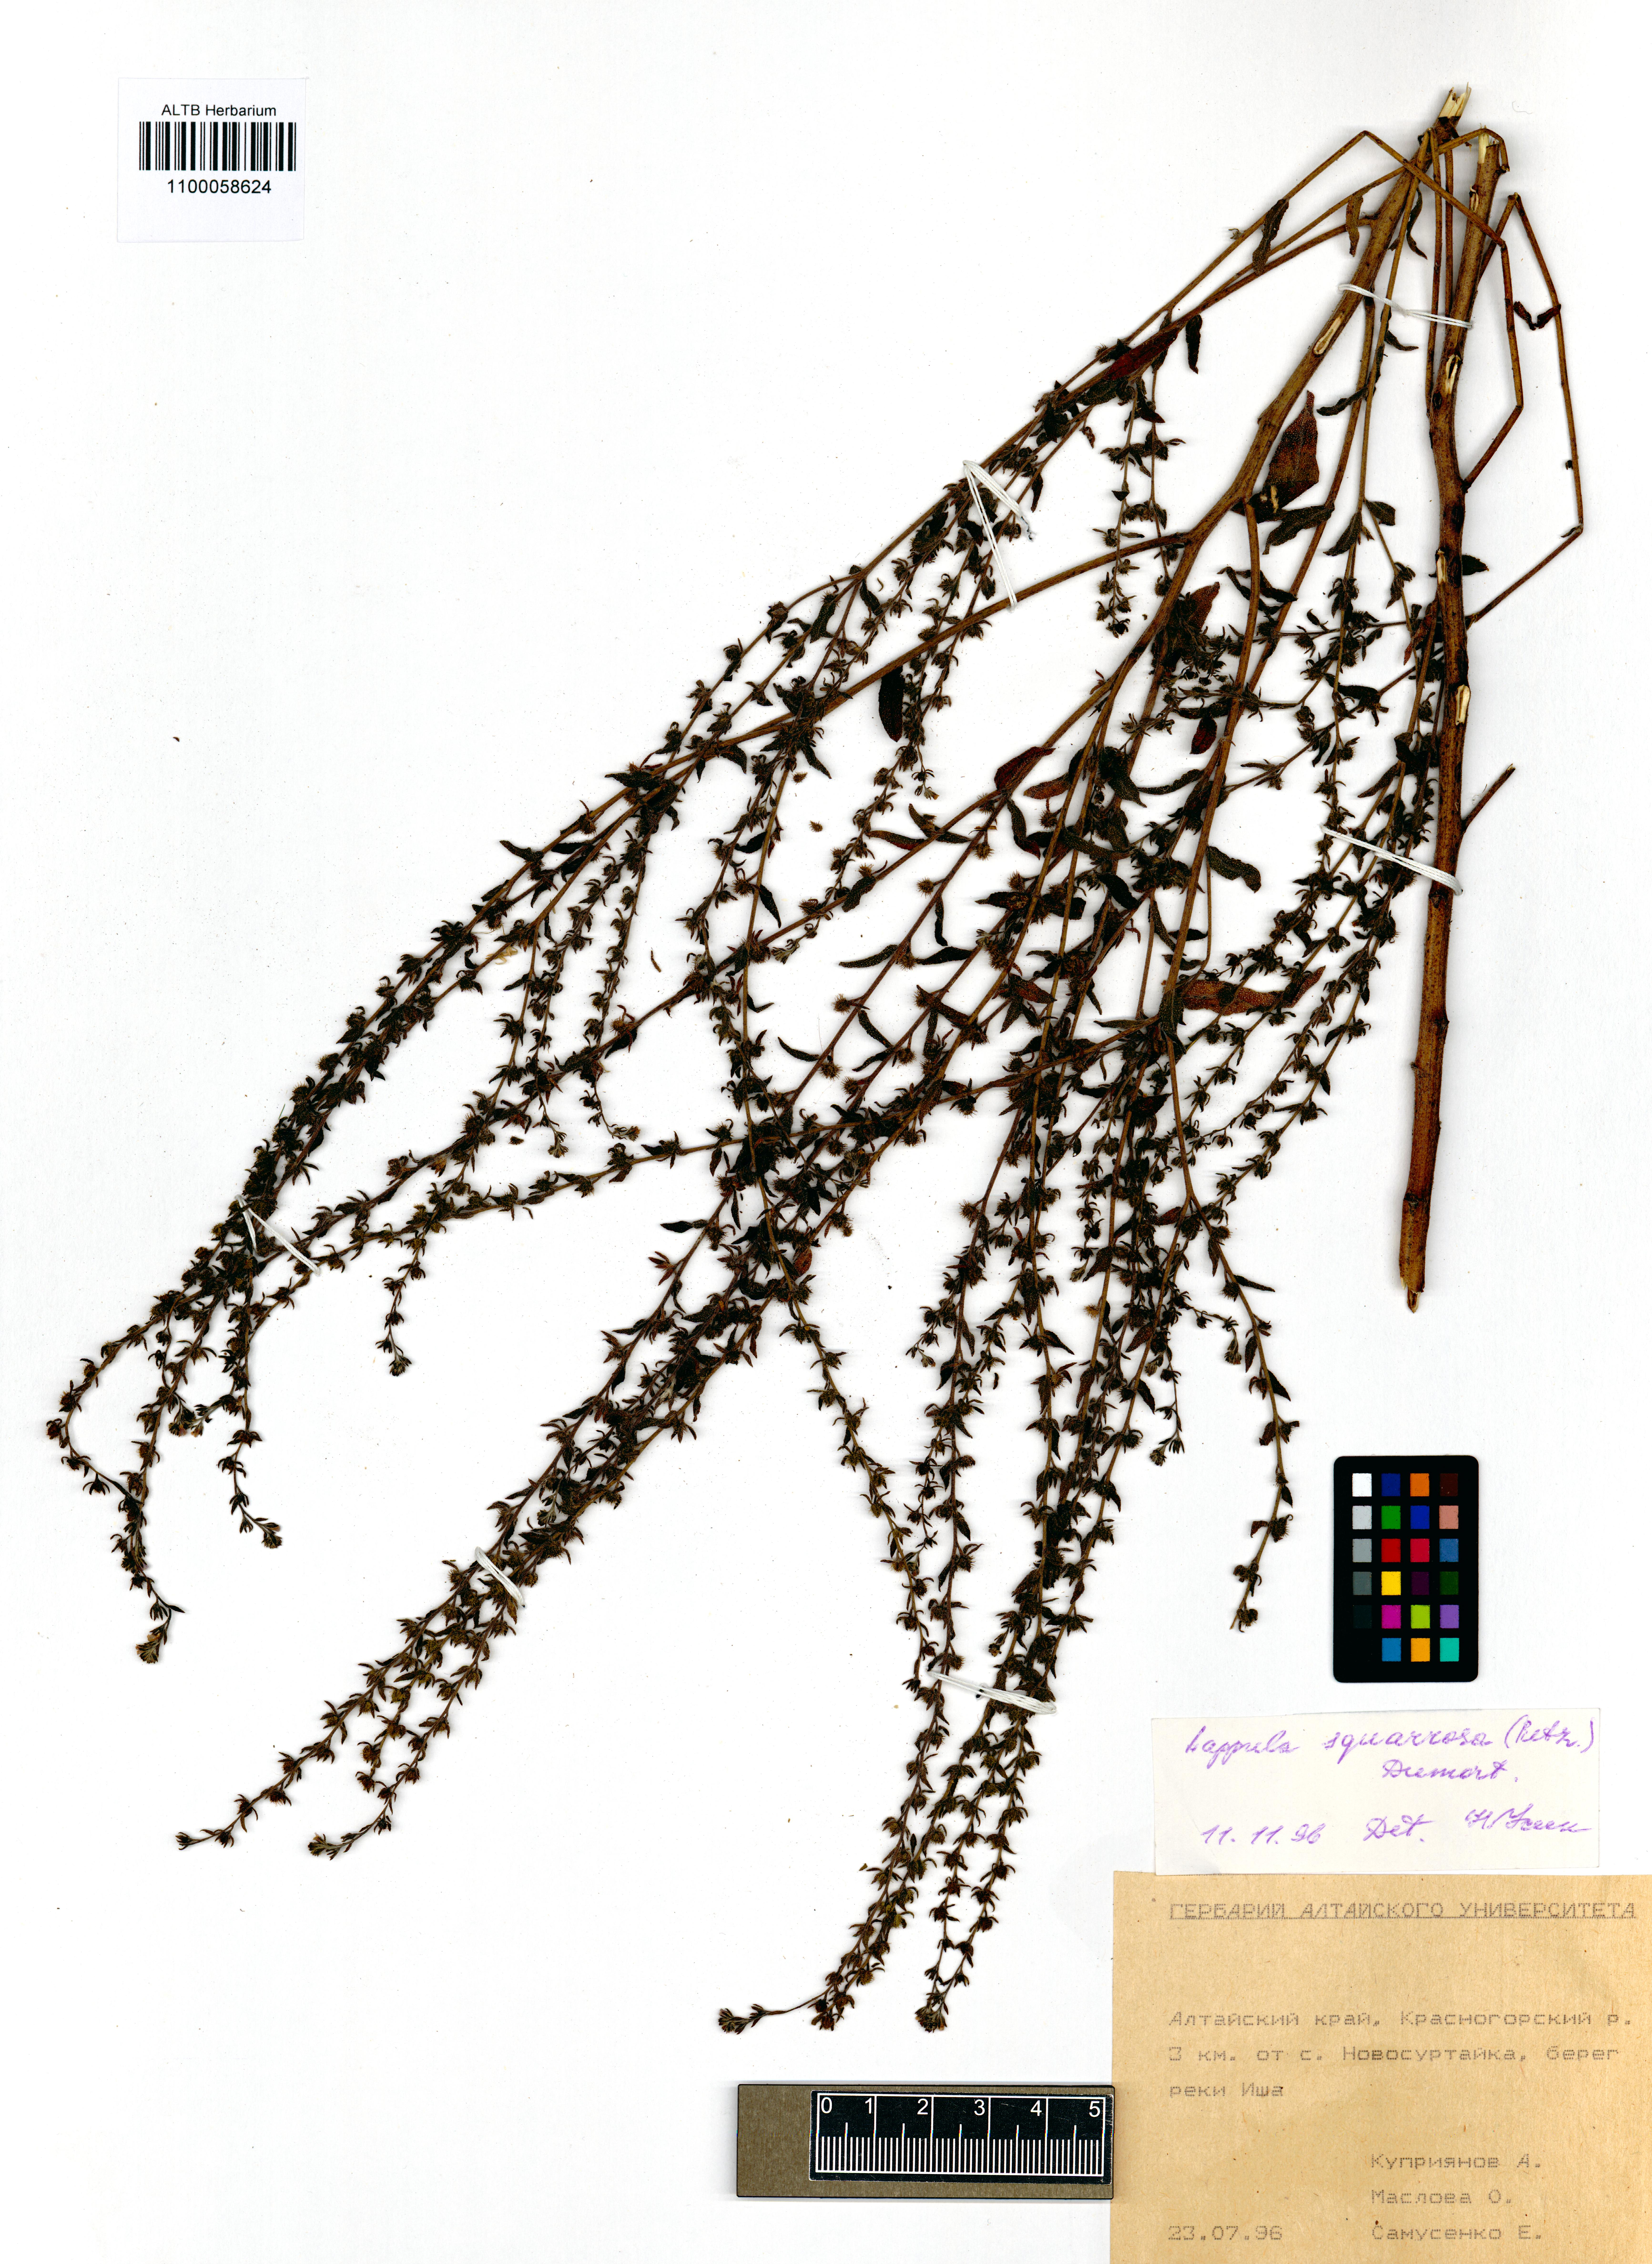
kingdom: Plantae
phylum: Tracheophyta
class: Magnoliopsida
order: Boraginales
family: Boraginaceae
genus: Lappula
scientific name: Lappula squarrosa
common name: European stickseed
